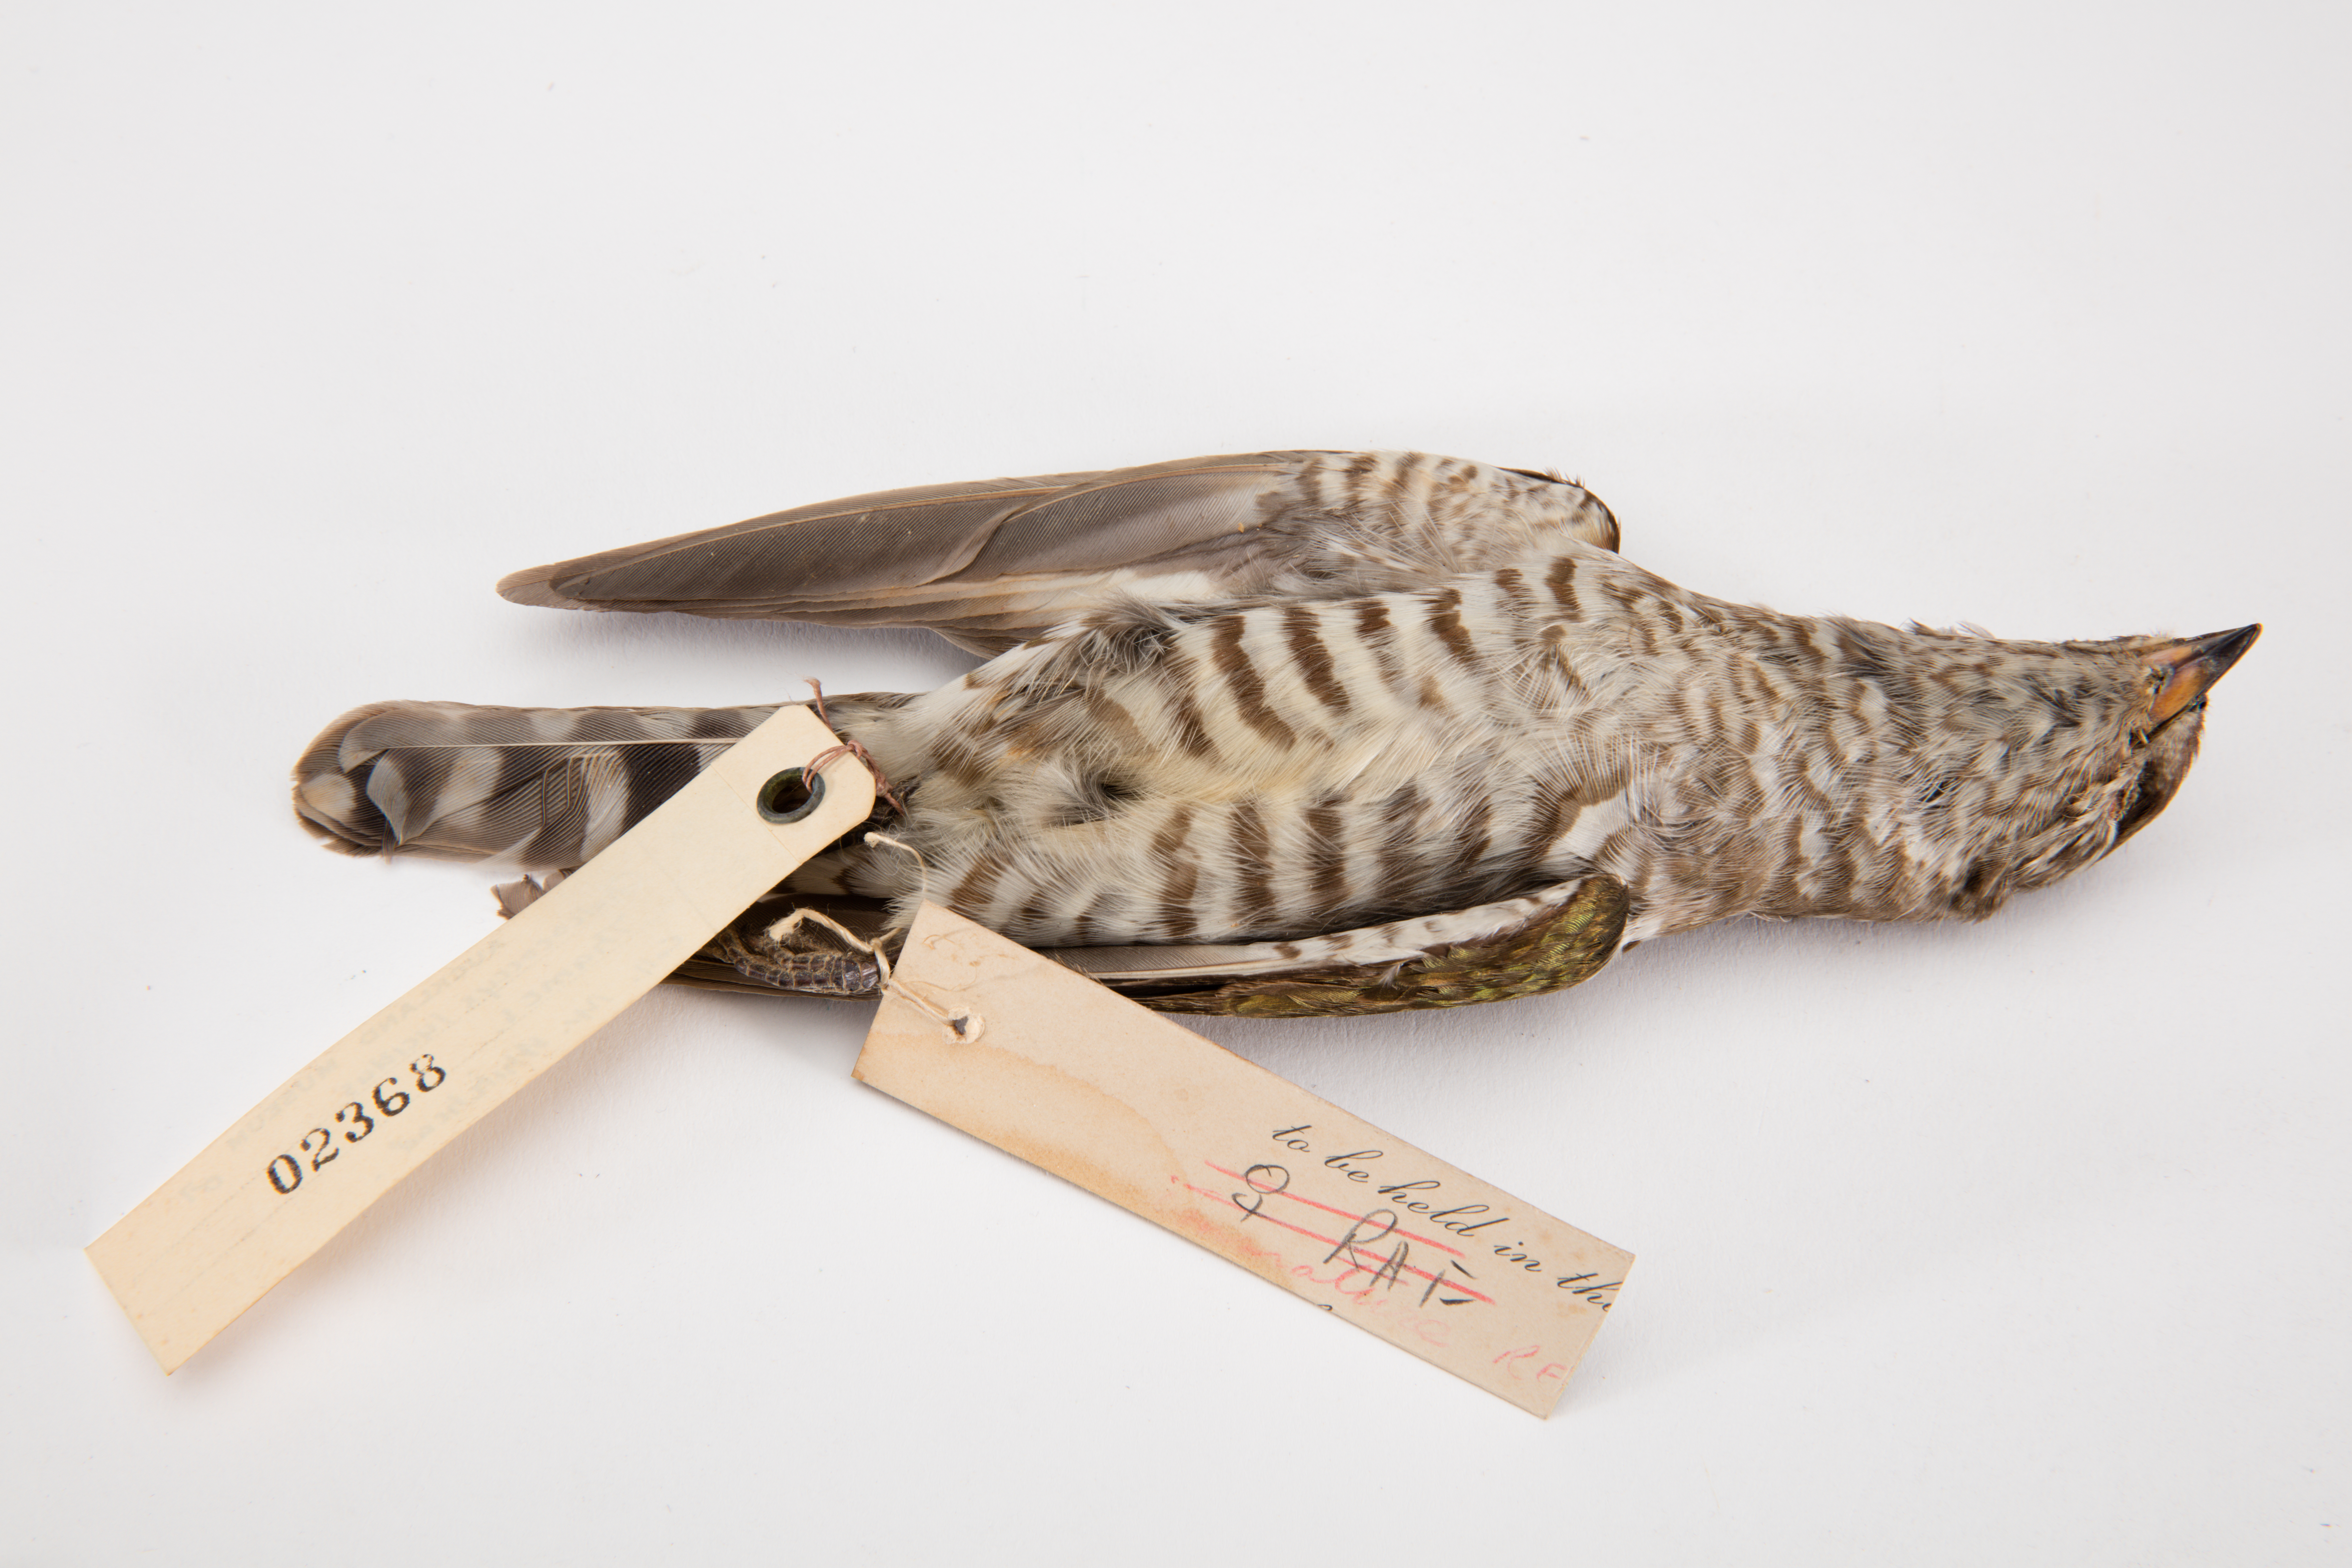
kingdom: Animalia
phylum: Chordata
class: Aves
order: Cuculiformes
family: Cuculidae
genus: Chrysococcyx
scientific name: Chrysococcyx lucidus
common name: Shining bronze cuckoo
